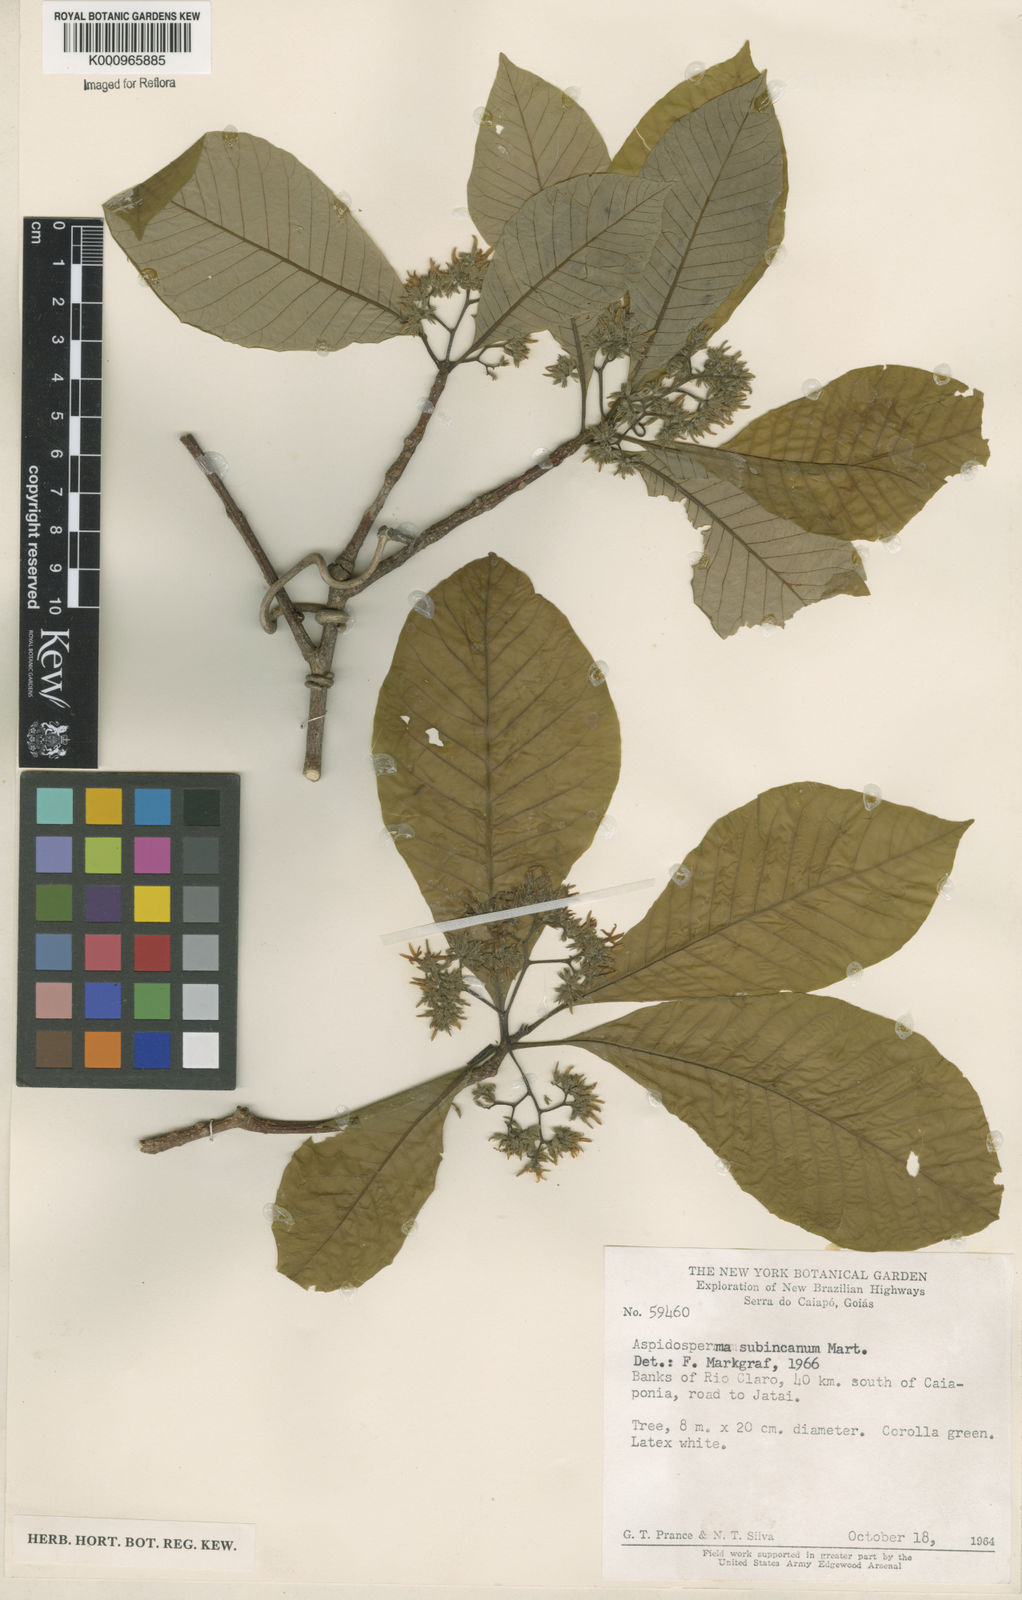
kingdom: Plantae
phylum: Tracheophyta
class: Magnoliopsida
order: Gentianales
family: Apocynaceae
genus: Aspidosperma
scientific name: Aspidosperma subincanum
